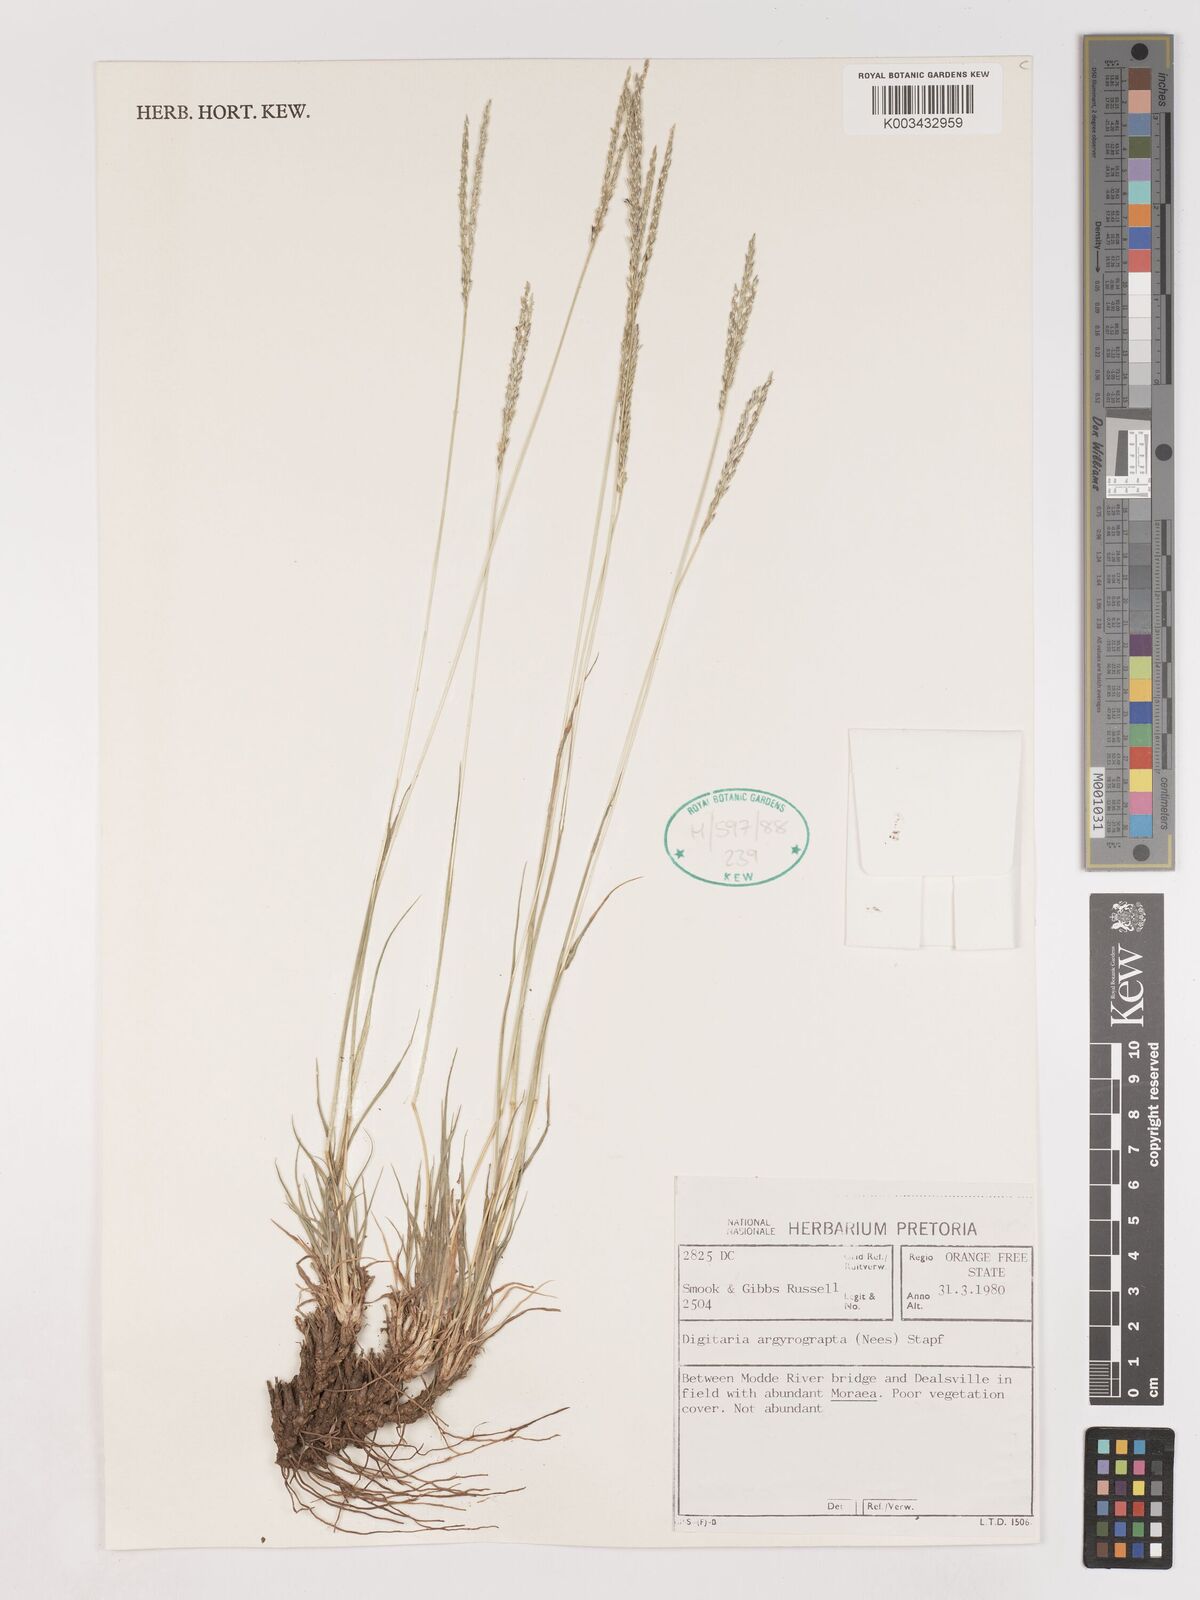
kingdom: Plantae
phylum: Tracheophyta
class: Liliopsida
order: Poales
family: Poaceae
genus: Digitaria
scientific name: Digitaria argyrograpta
